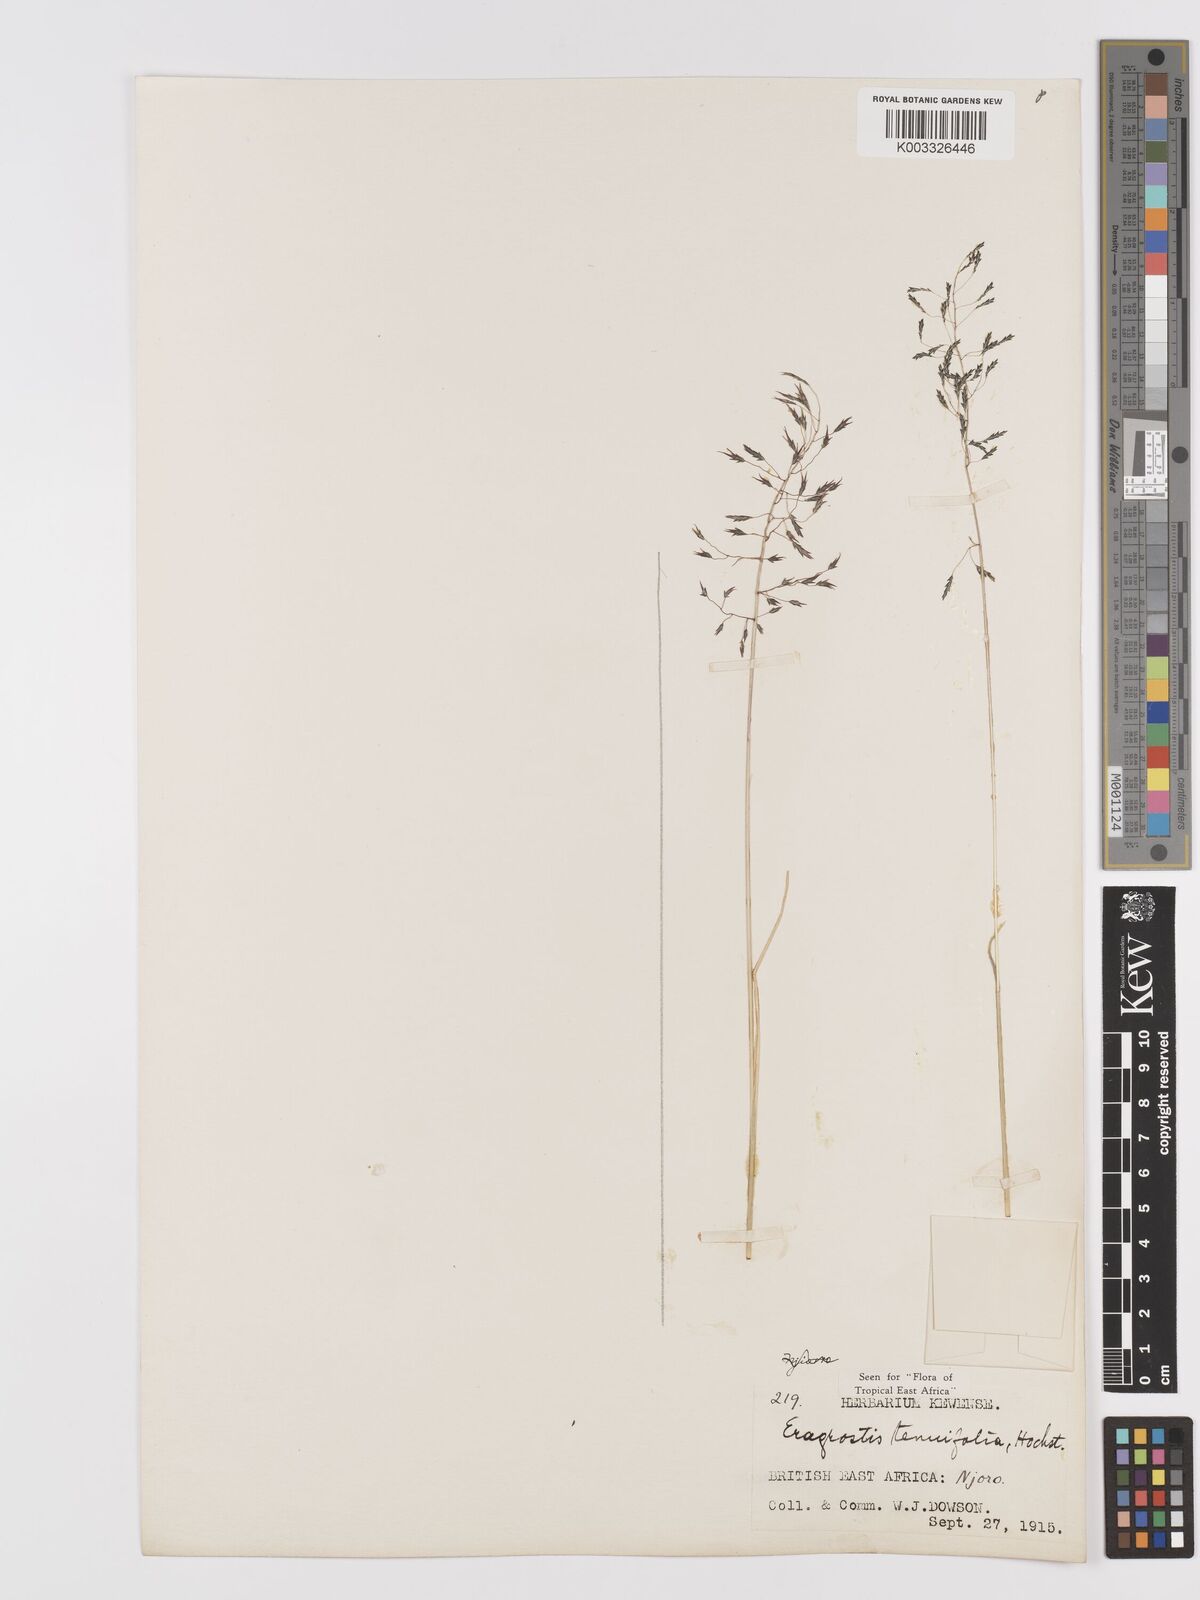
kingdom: Plantae
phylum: Tracheophyta
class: Liliopsida
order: Poales
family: Poaceae
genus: Eragrostis
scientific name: Eragrostis tenuifolia
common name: Elastic grass
